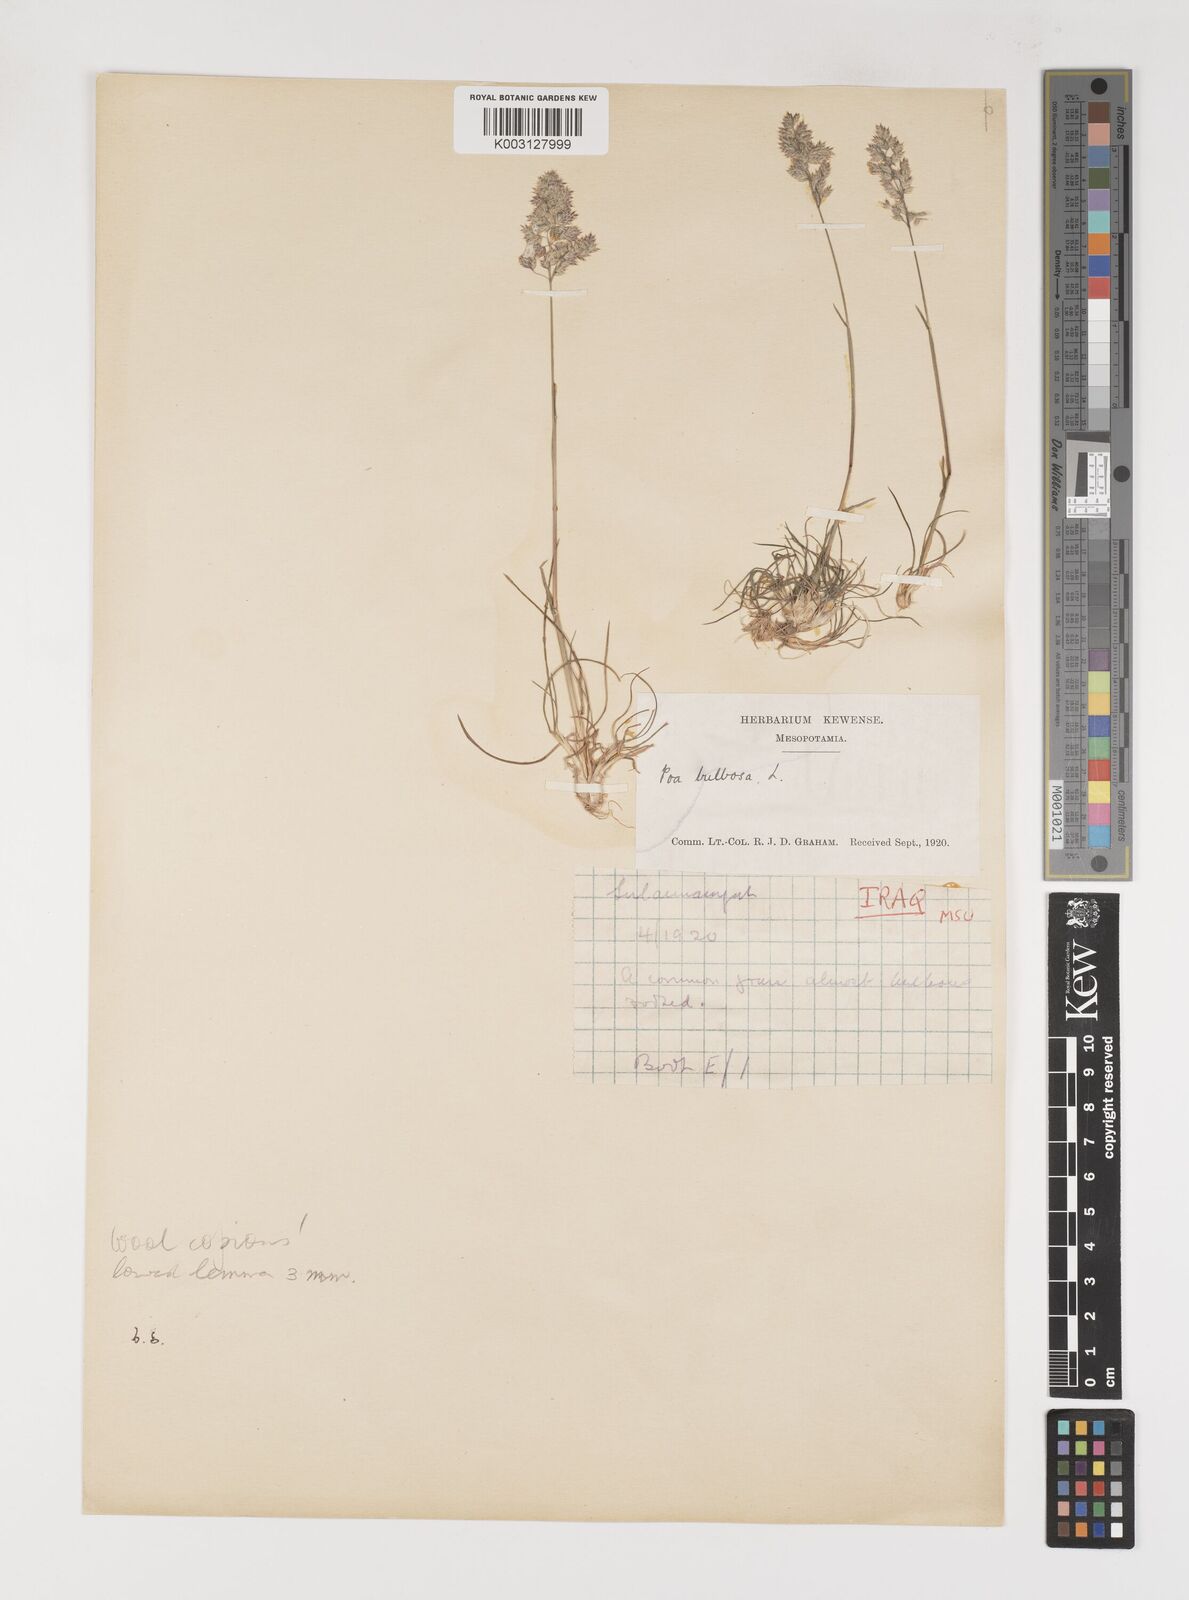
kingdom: Plantae
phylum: Tracheophyta
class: Liliopsida
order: Poales
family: Poaceae
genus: Poa
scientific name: Poa bulbosa
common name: Bulbous bluegrass
